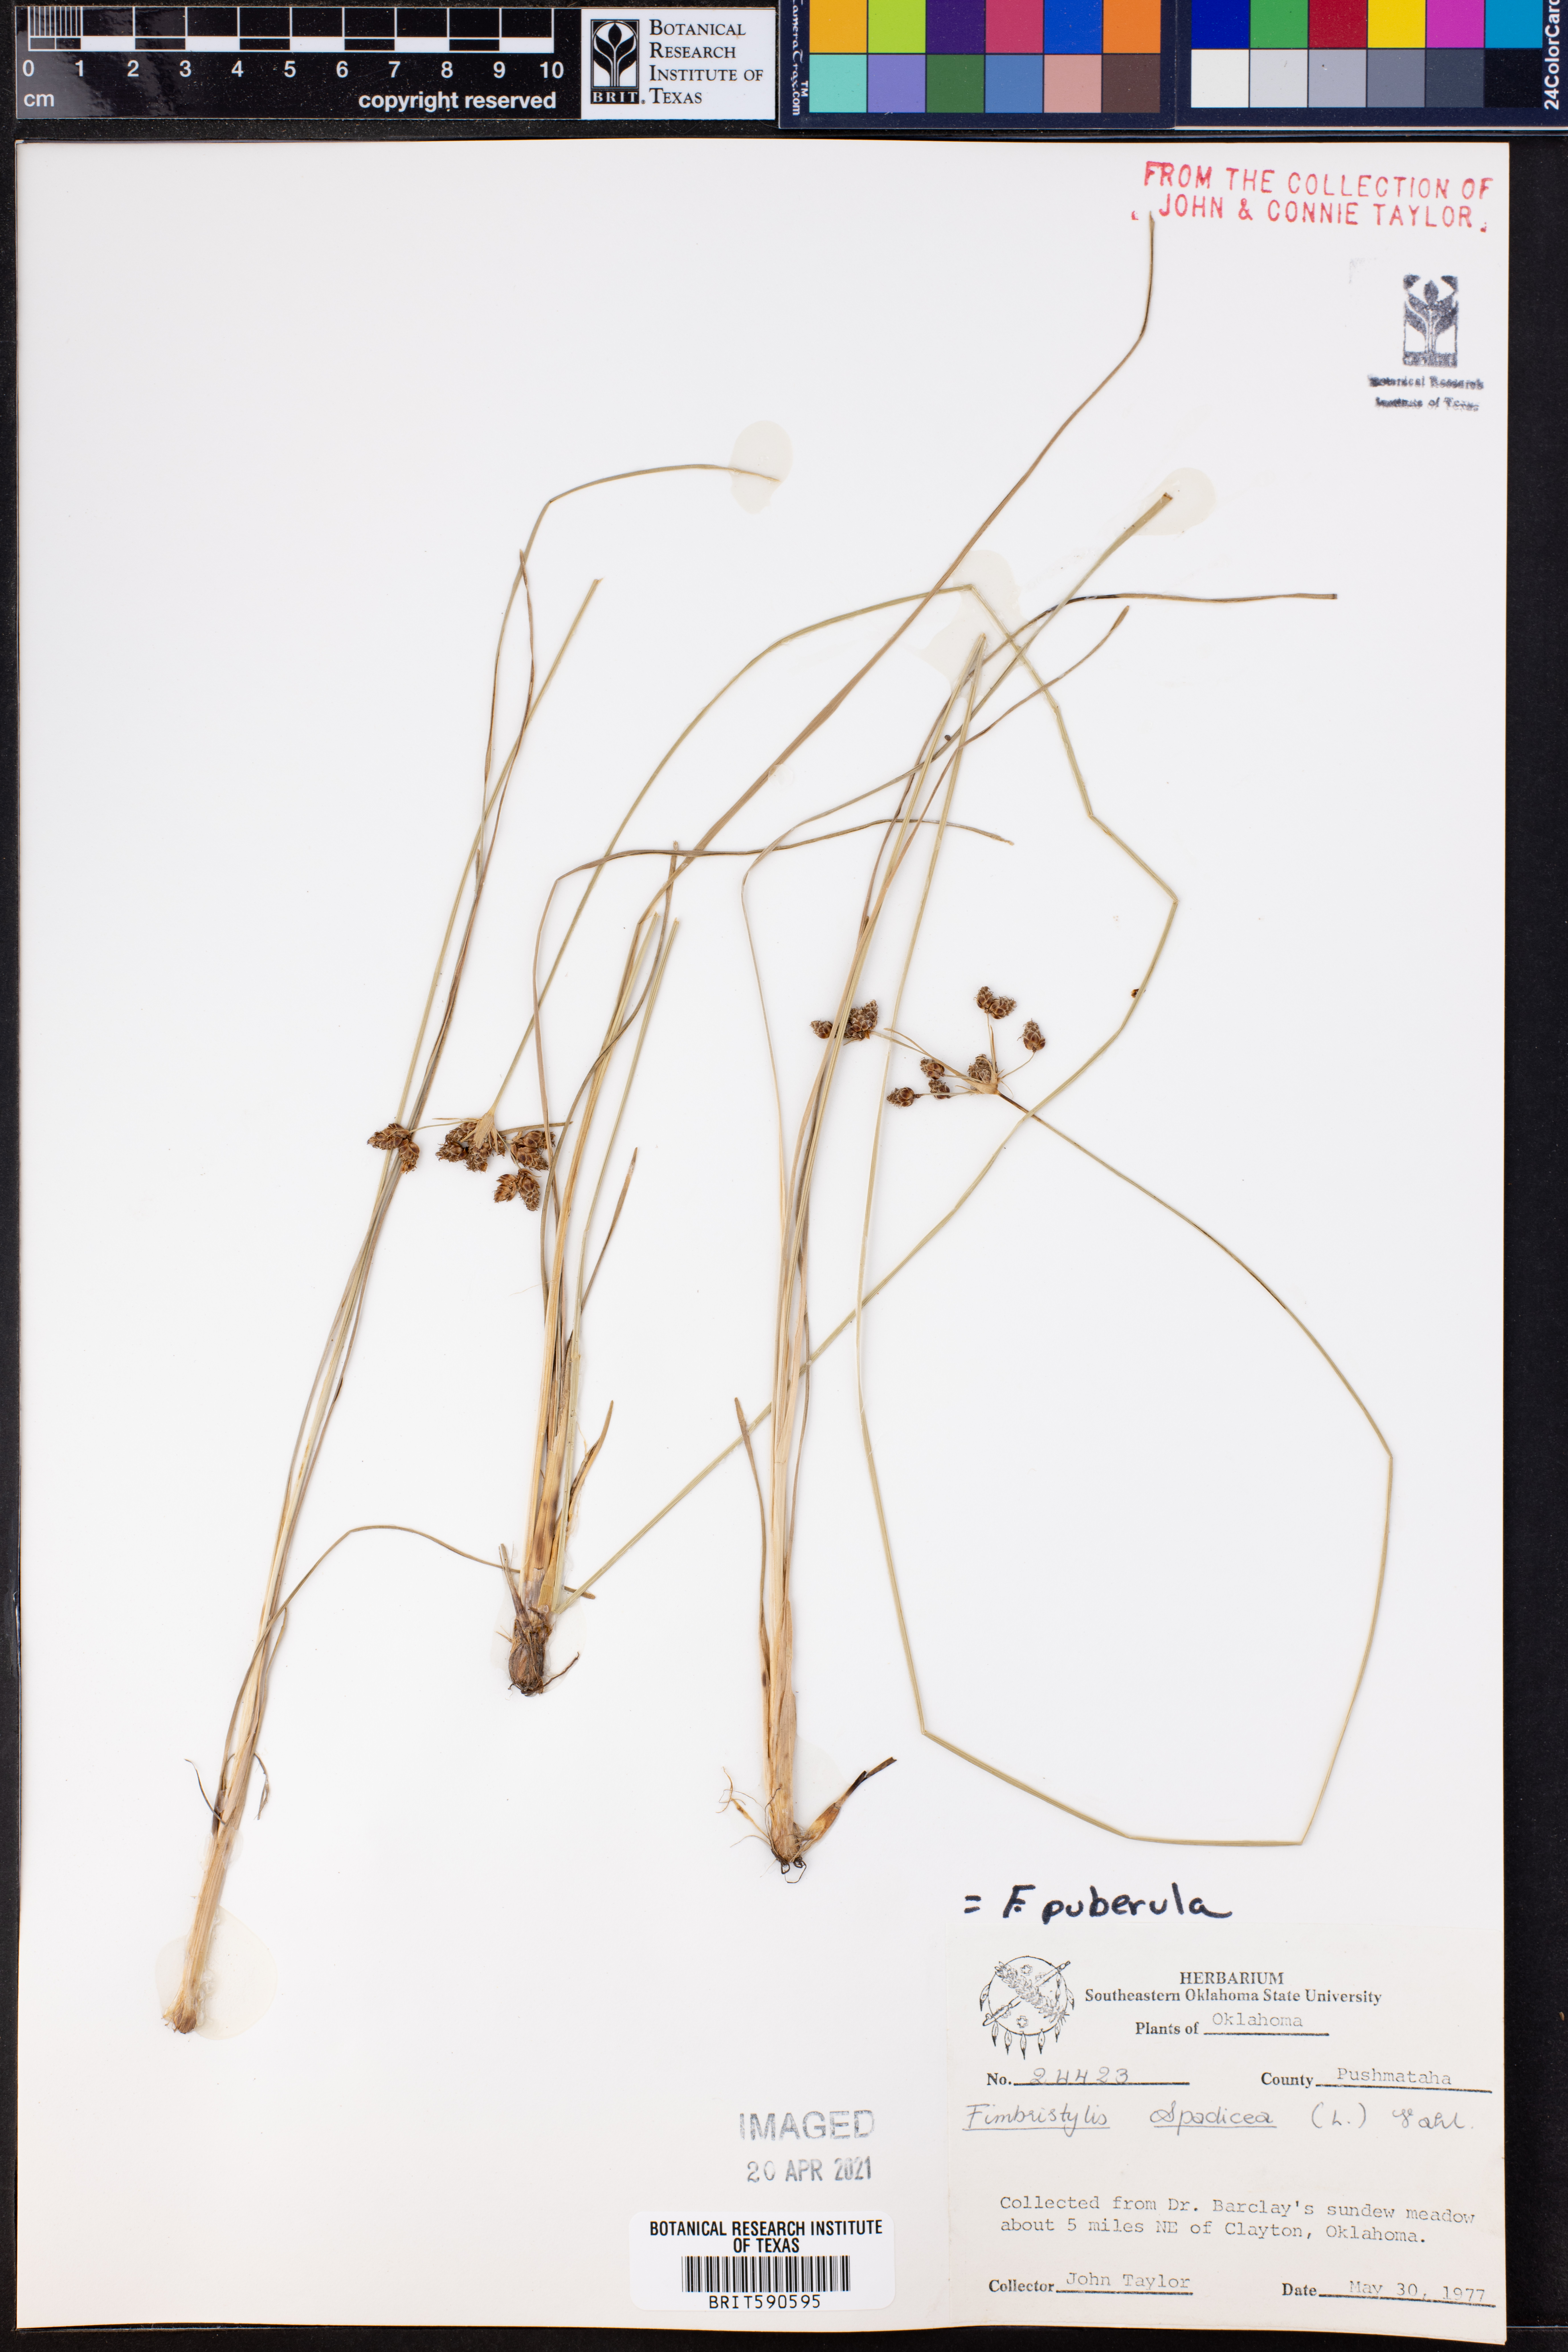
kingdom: Plantae
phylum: Tracheophyta
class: Liliopsida
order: Poales
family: Cyperaceae
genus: Fimbristylis
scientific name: Fimbristylis puberula
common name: Hairy fimbristylis
